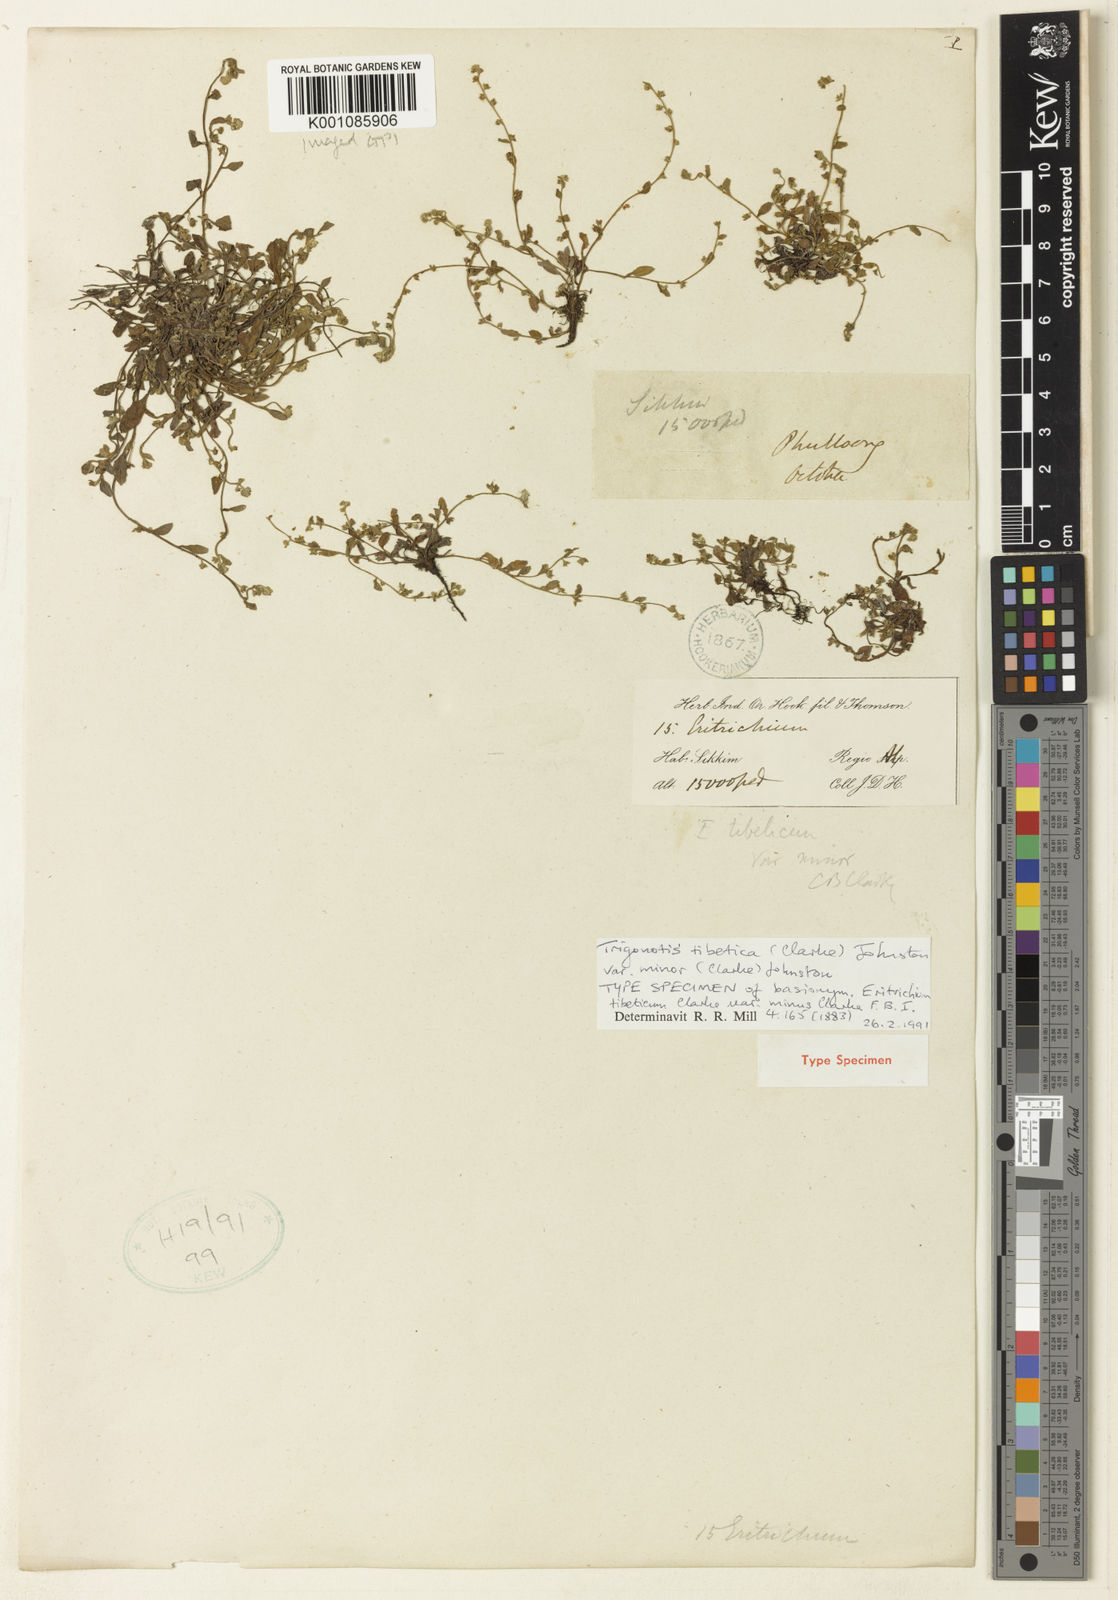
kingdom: Plantae
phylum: Tracheophyta
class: Magnoliopsida
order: Boraginales
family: Boraginaceae
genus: Trigonotis
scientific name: Trigonotis tibetica
